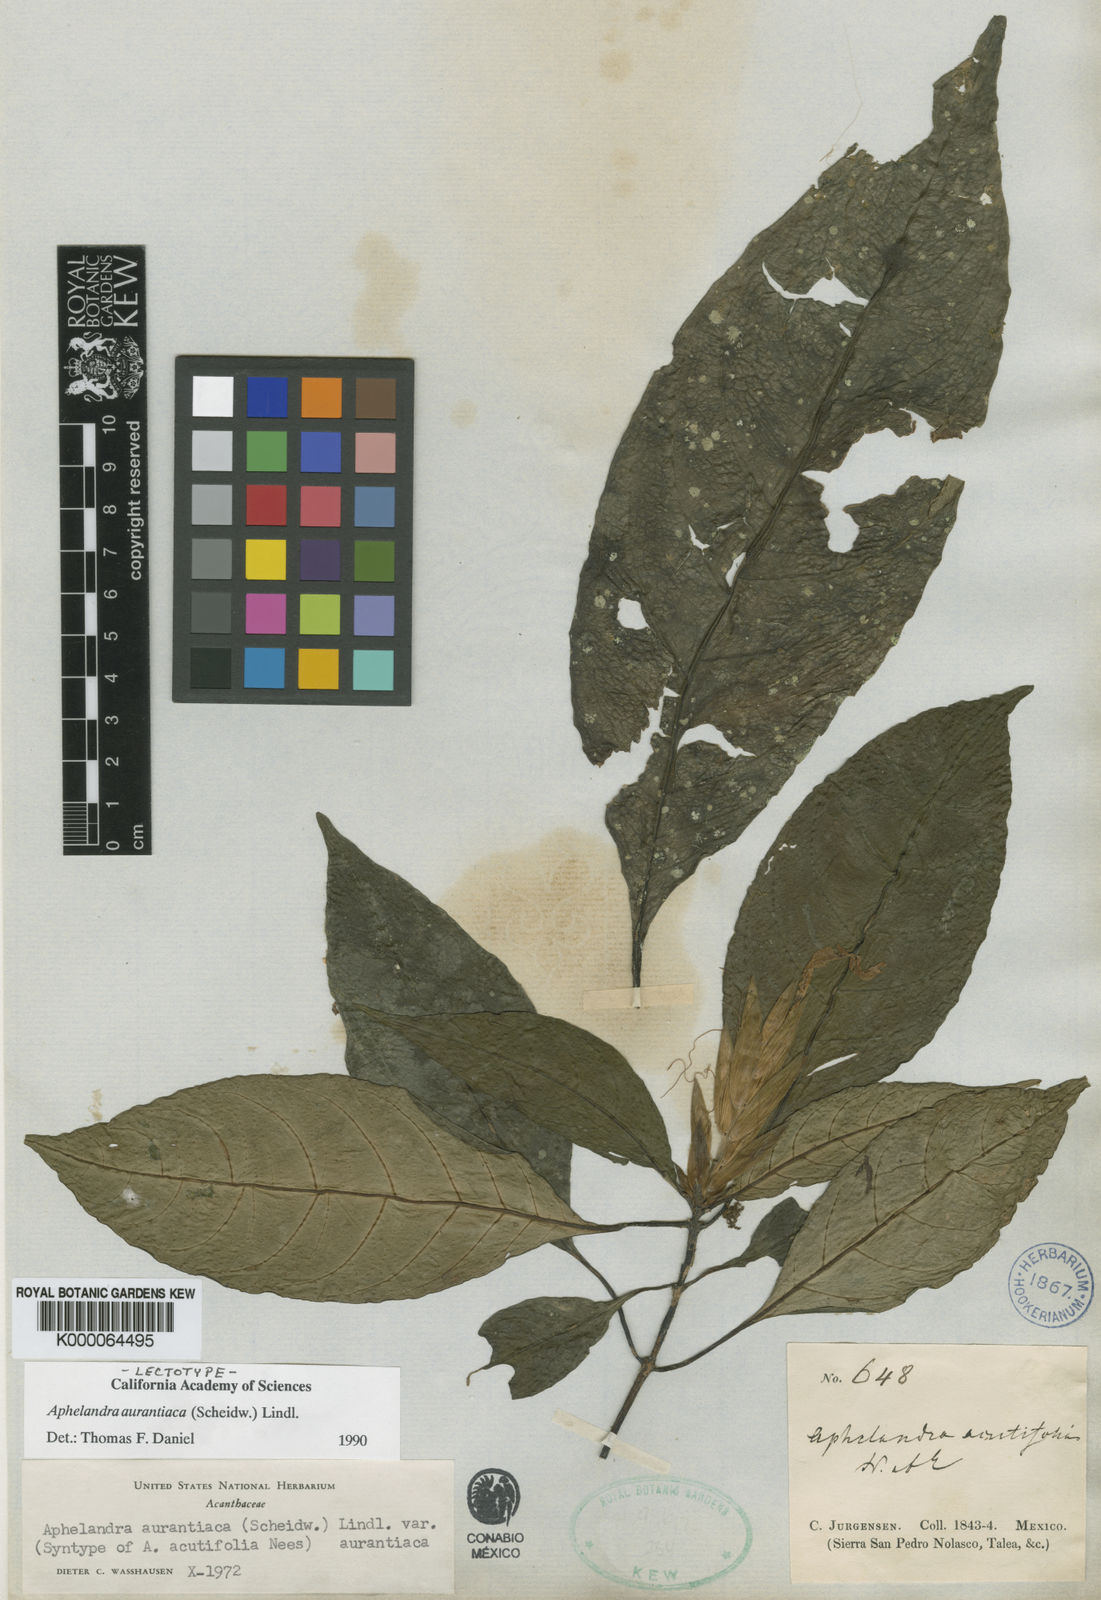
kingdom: Plantae
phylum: Tracheophyta
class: Magnoliopsida
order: Lamiales
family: Acanthaceae
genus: Aphelandra
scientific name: Aphelandra aurantiaca
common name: Fiery spike
